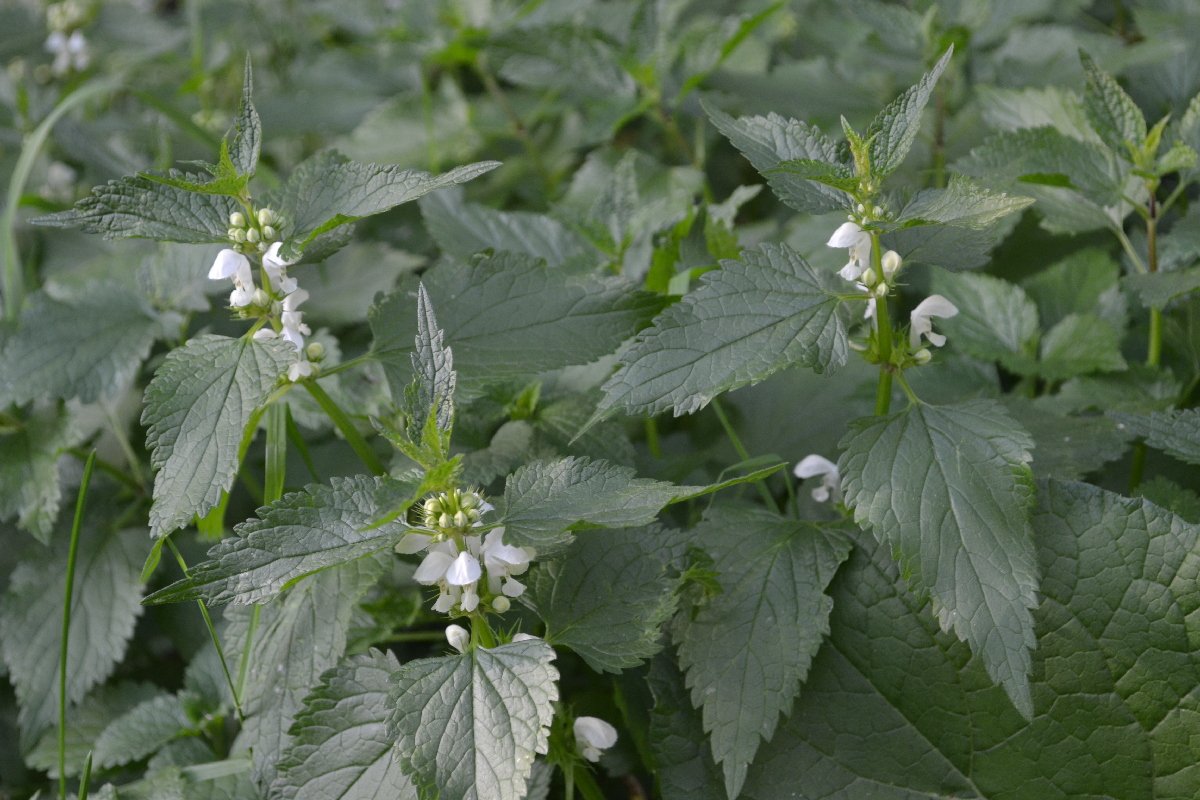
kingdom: Plantae
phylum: Tracheophyta
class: Magnoliopsida
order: Lamiales
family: Lamiaceae
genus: Lamium
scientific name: Lamium album
